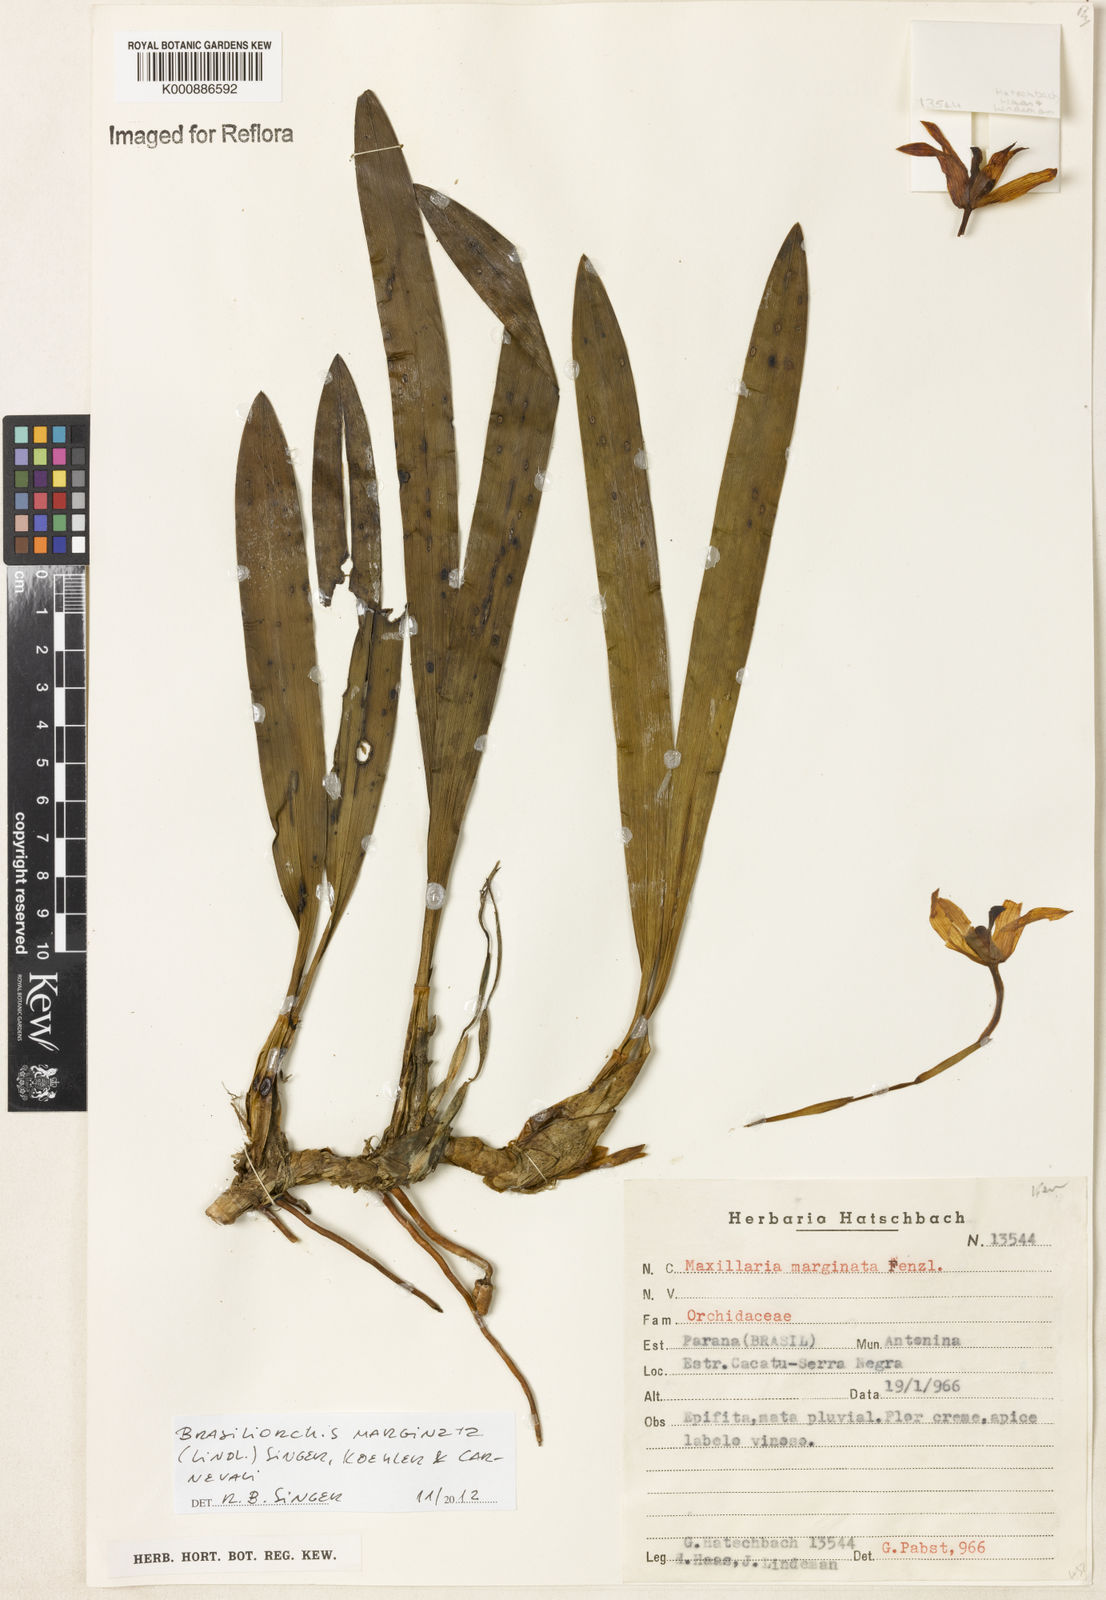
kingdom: Plantae
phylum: Tracheophyta
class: Liliopsida
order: Asparagales
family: Orchidaceae
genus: Maxillaria
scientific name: Maxillaria marginata
